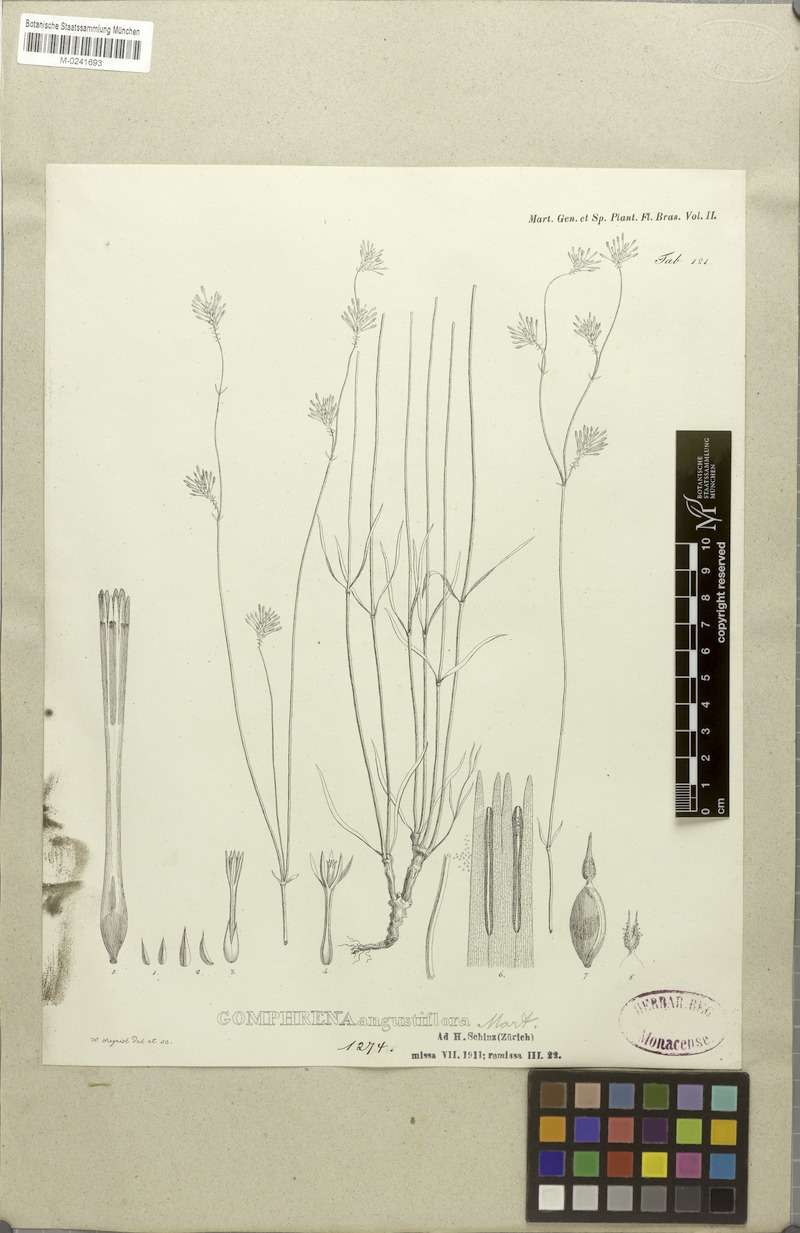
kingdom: Plantae
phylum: Tracheophyta
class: Magnoliopsida
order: Caryophyllales
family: Amaranthaceae
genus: Gomphrena
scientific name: Gomphrena angustiflora
